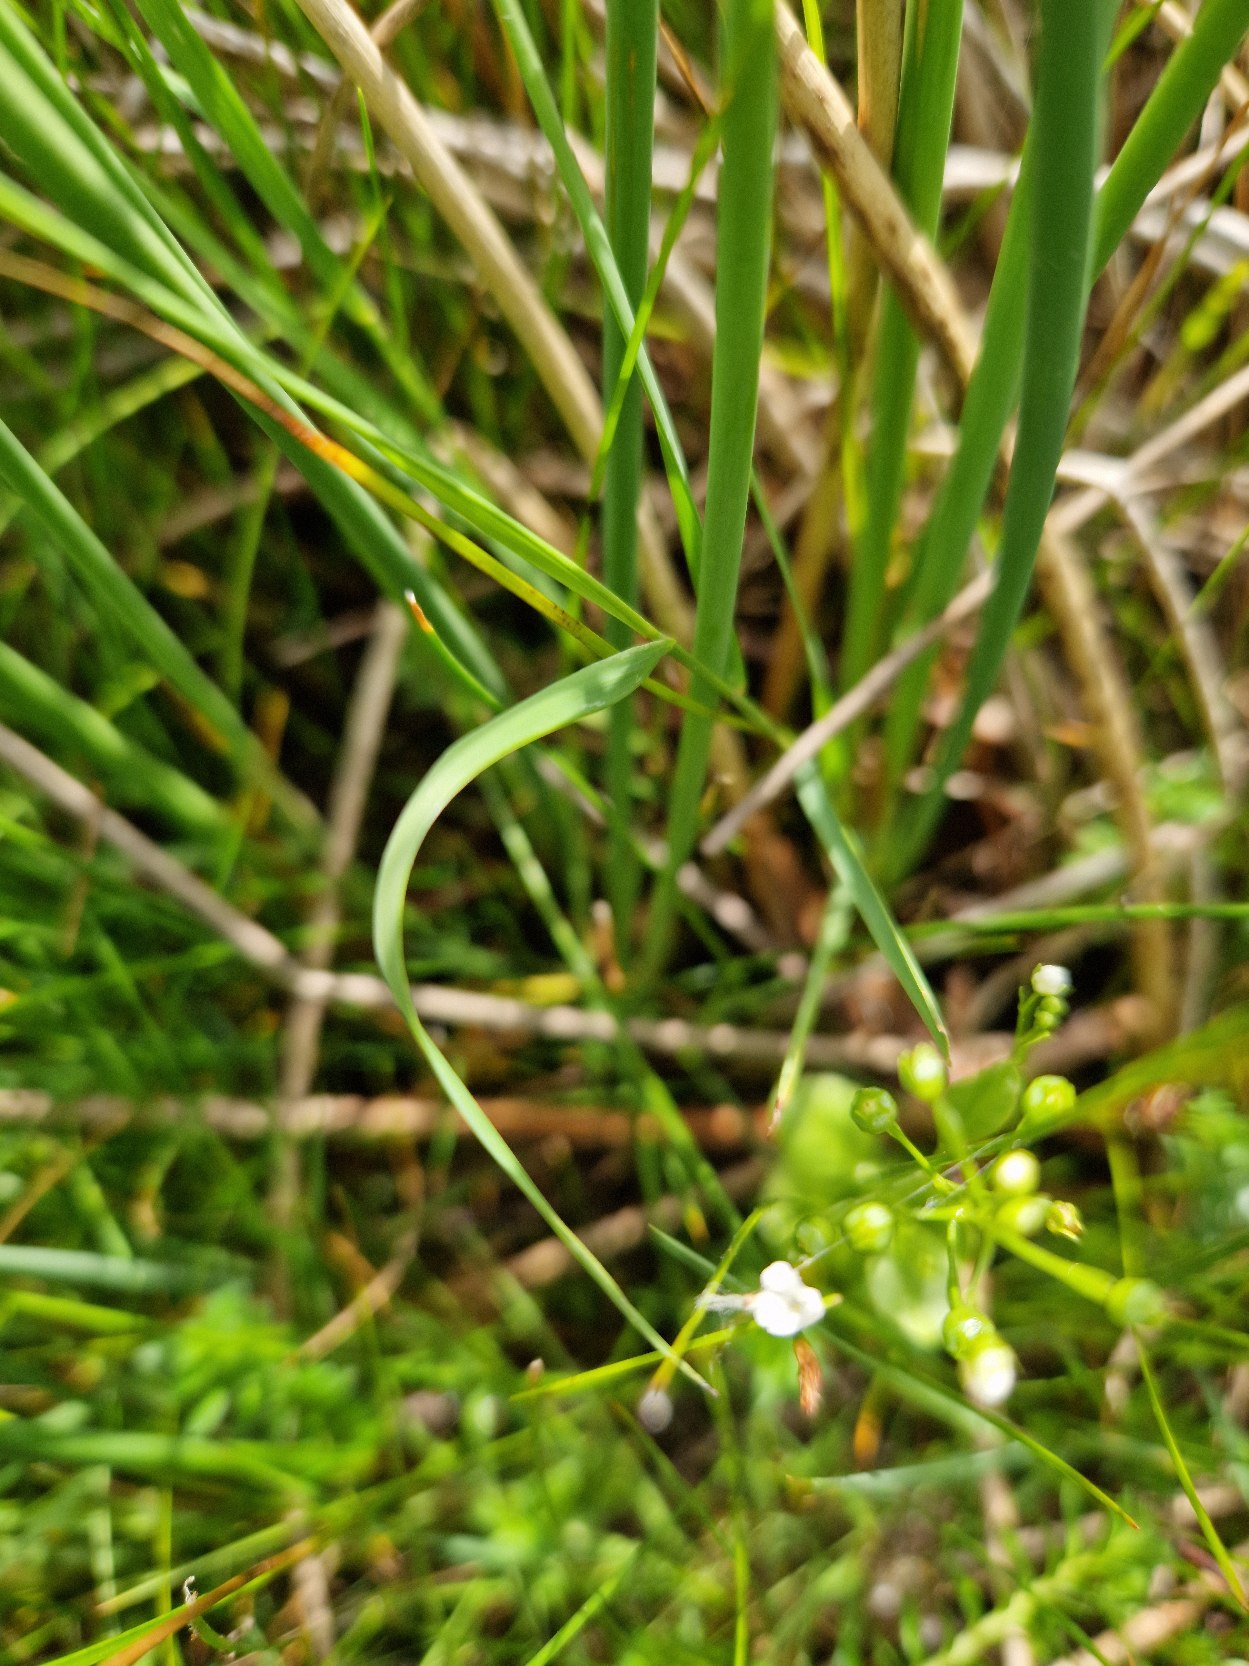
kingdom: Plantae
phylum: Tracheophyta
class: Magnoliopsida
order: Ericales
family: Primulaceae
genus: Samolus
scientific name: Samolus valerandi
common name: Samel
